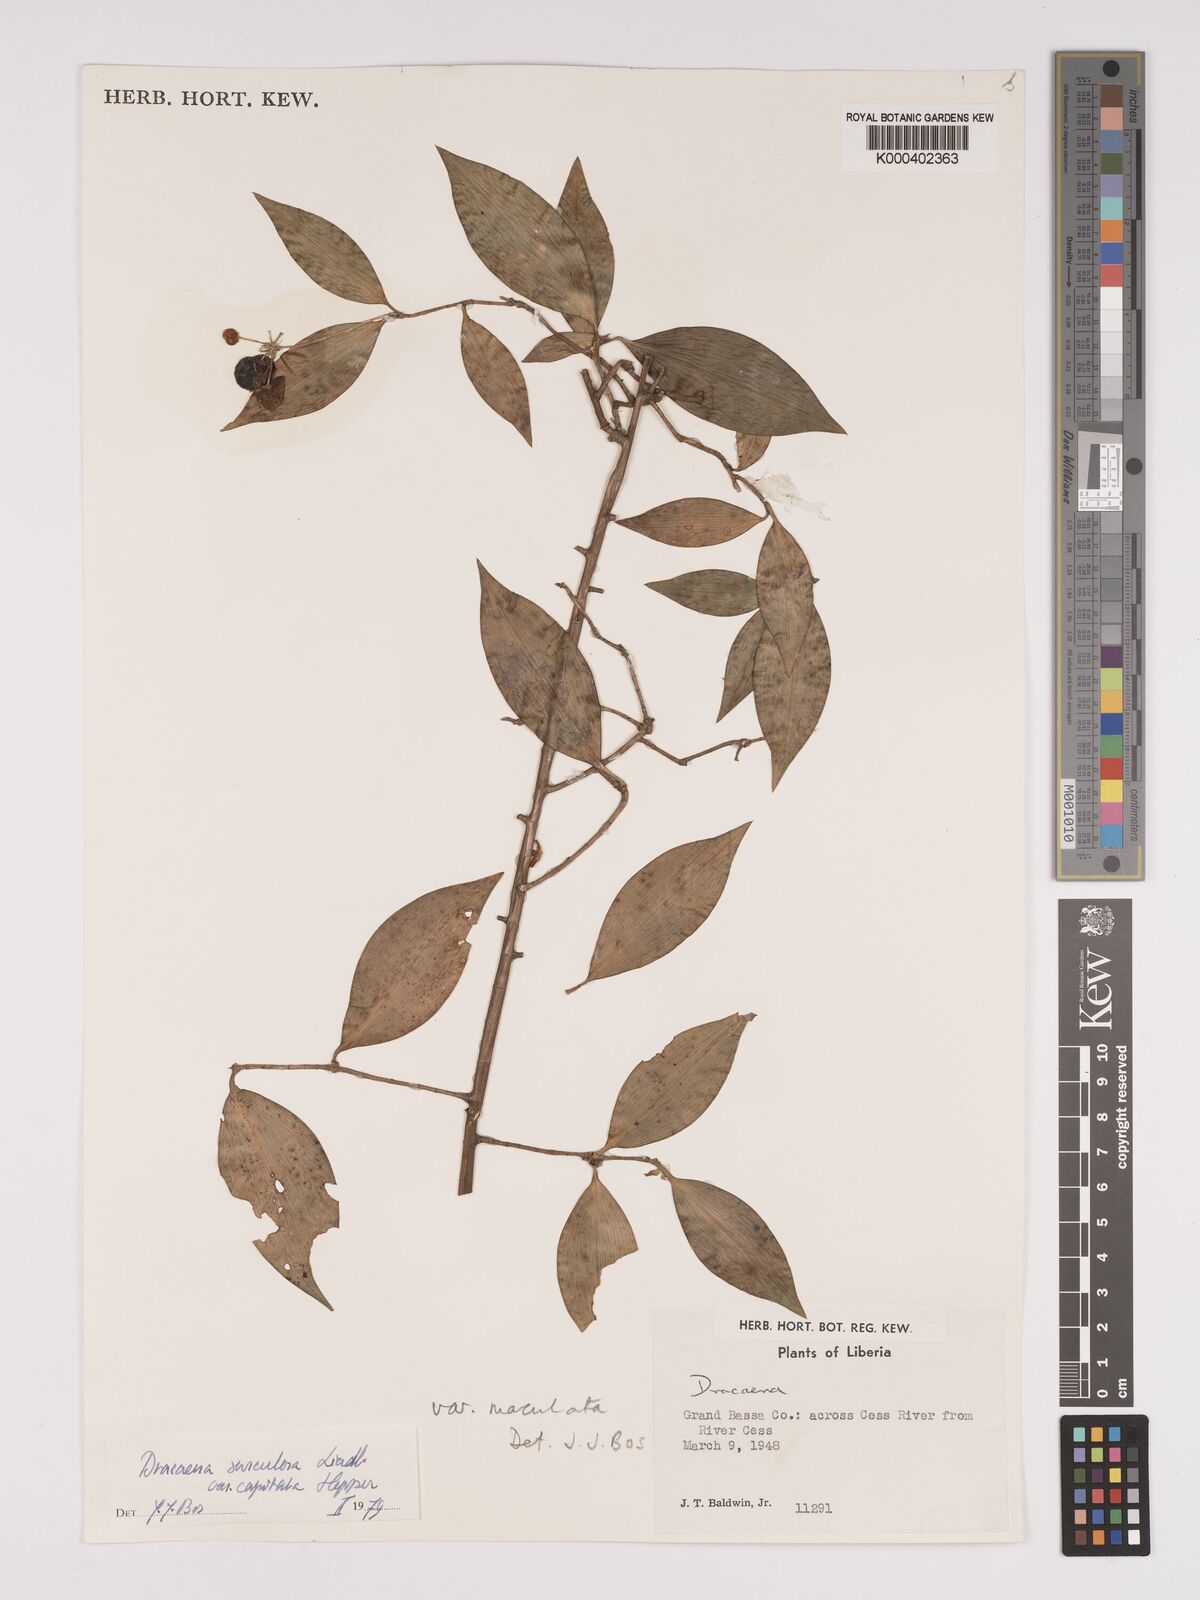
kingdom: Plantae
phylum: Tracheophyta
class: Liliopsida
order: Asparagales
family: Asparagaceae
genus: Dracaena
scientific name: Dracaena surculosa
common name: Spotted dracaena
